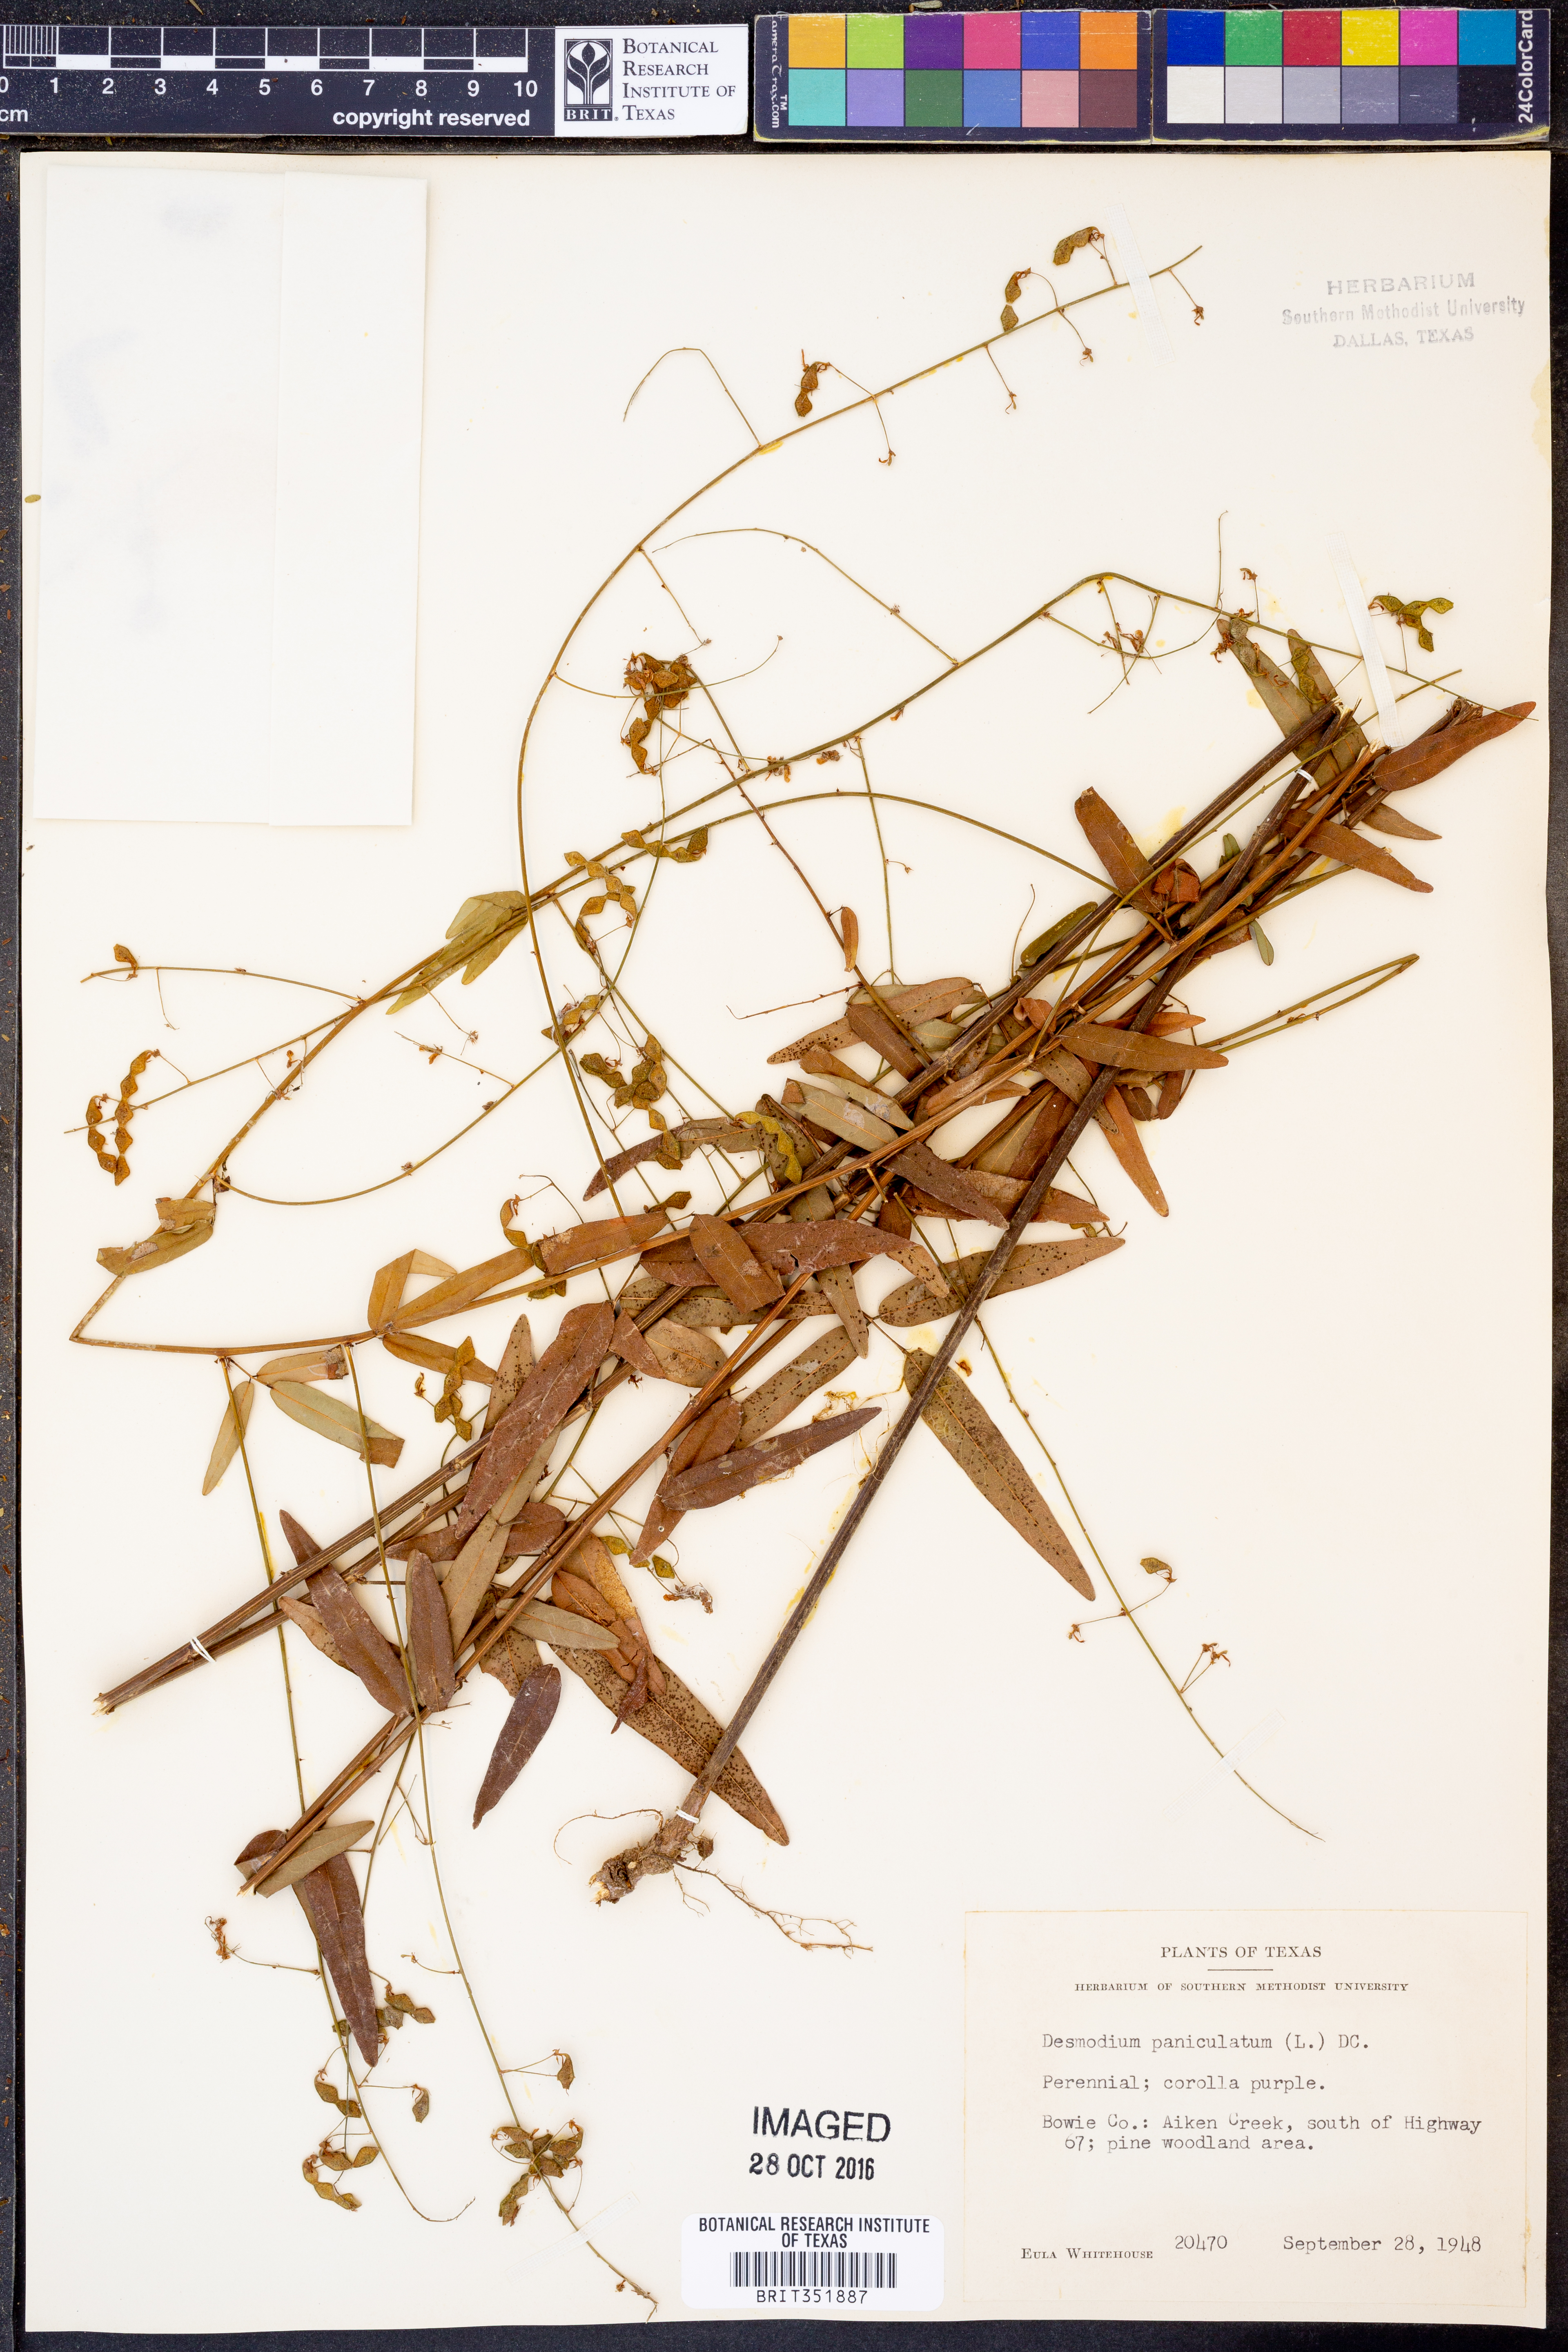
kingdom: Plantae
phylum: Tracheophyta
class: Magnoliopsida
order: Fabales
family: Fabaceae
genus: Desmodium
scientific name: Desmodium paniculatum
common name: Panicled tick-clover
